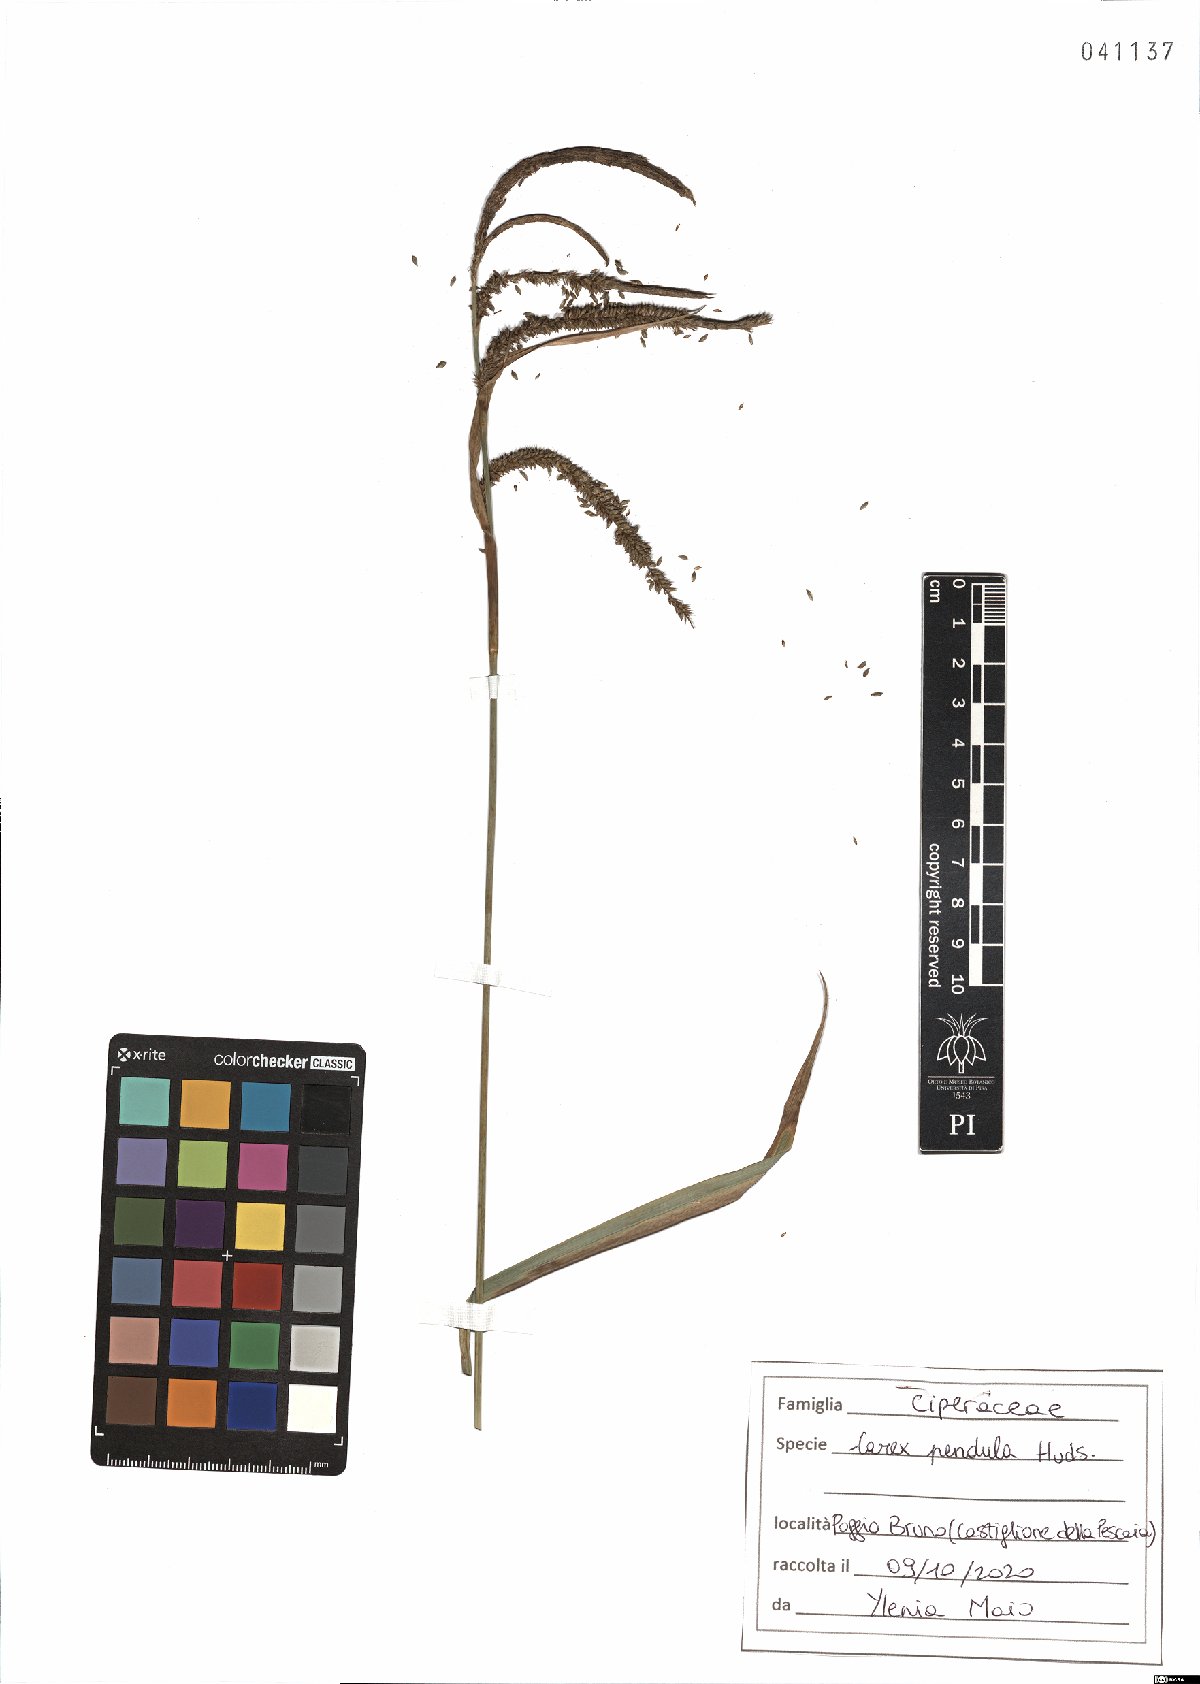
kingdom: Plantae
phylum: Tracheophyta
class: Liliopsida
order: Poales
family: Cyperaceae
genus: Carex
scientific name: Carex pendula
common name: Pendulous sedge
